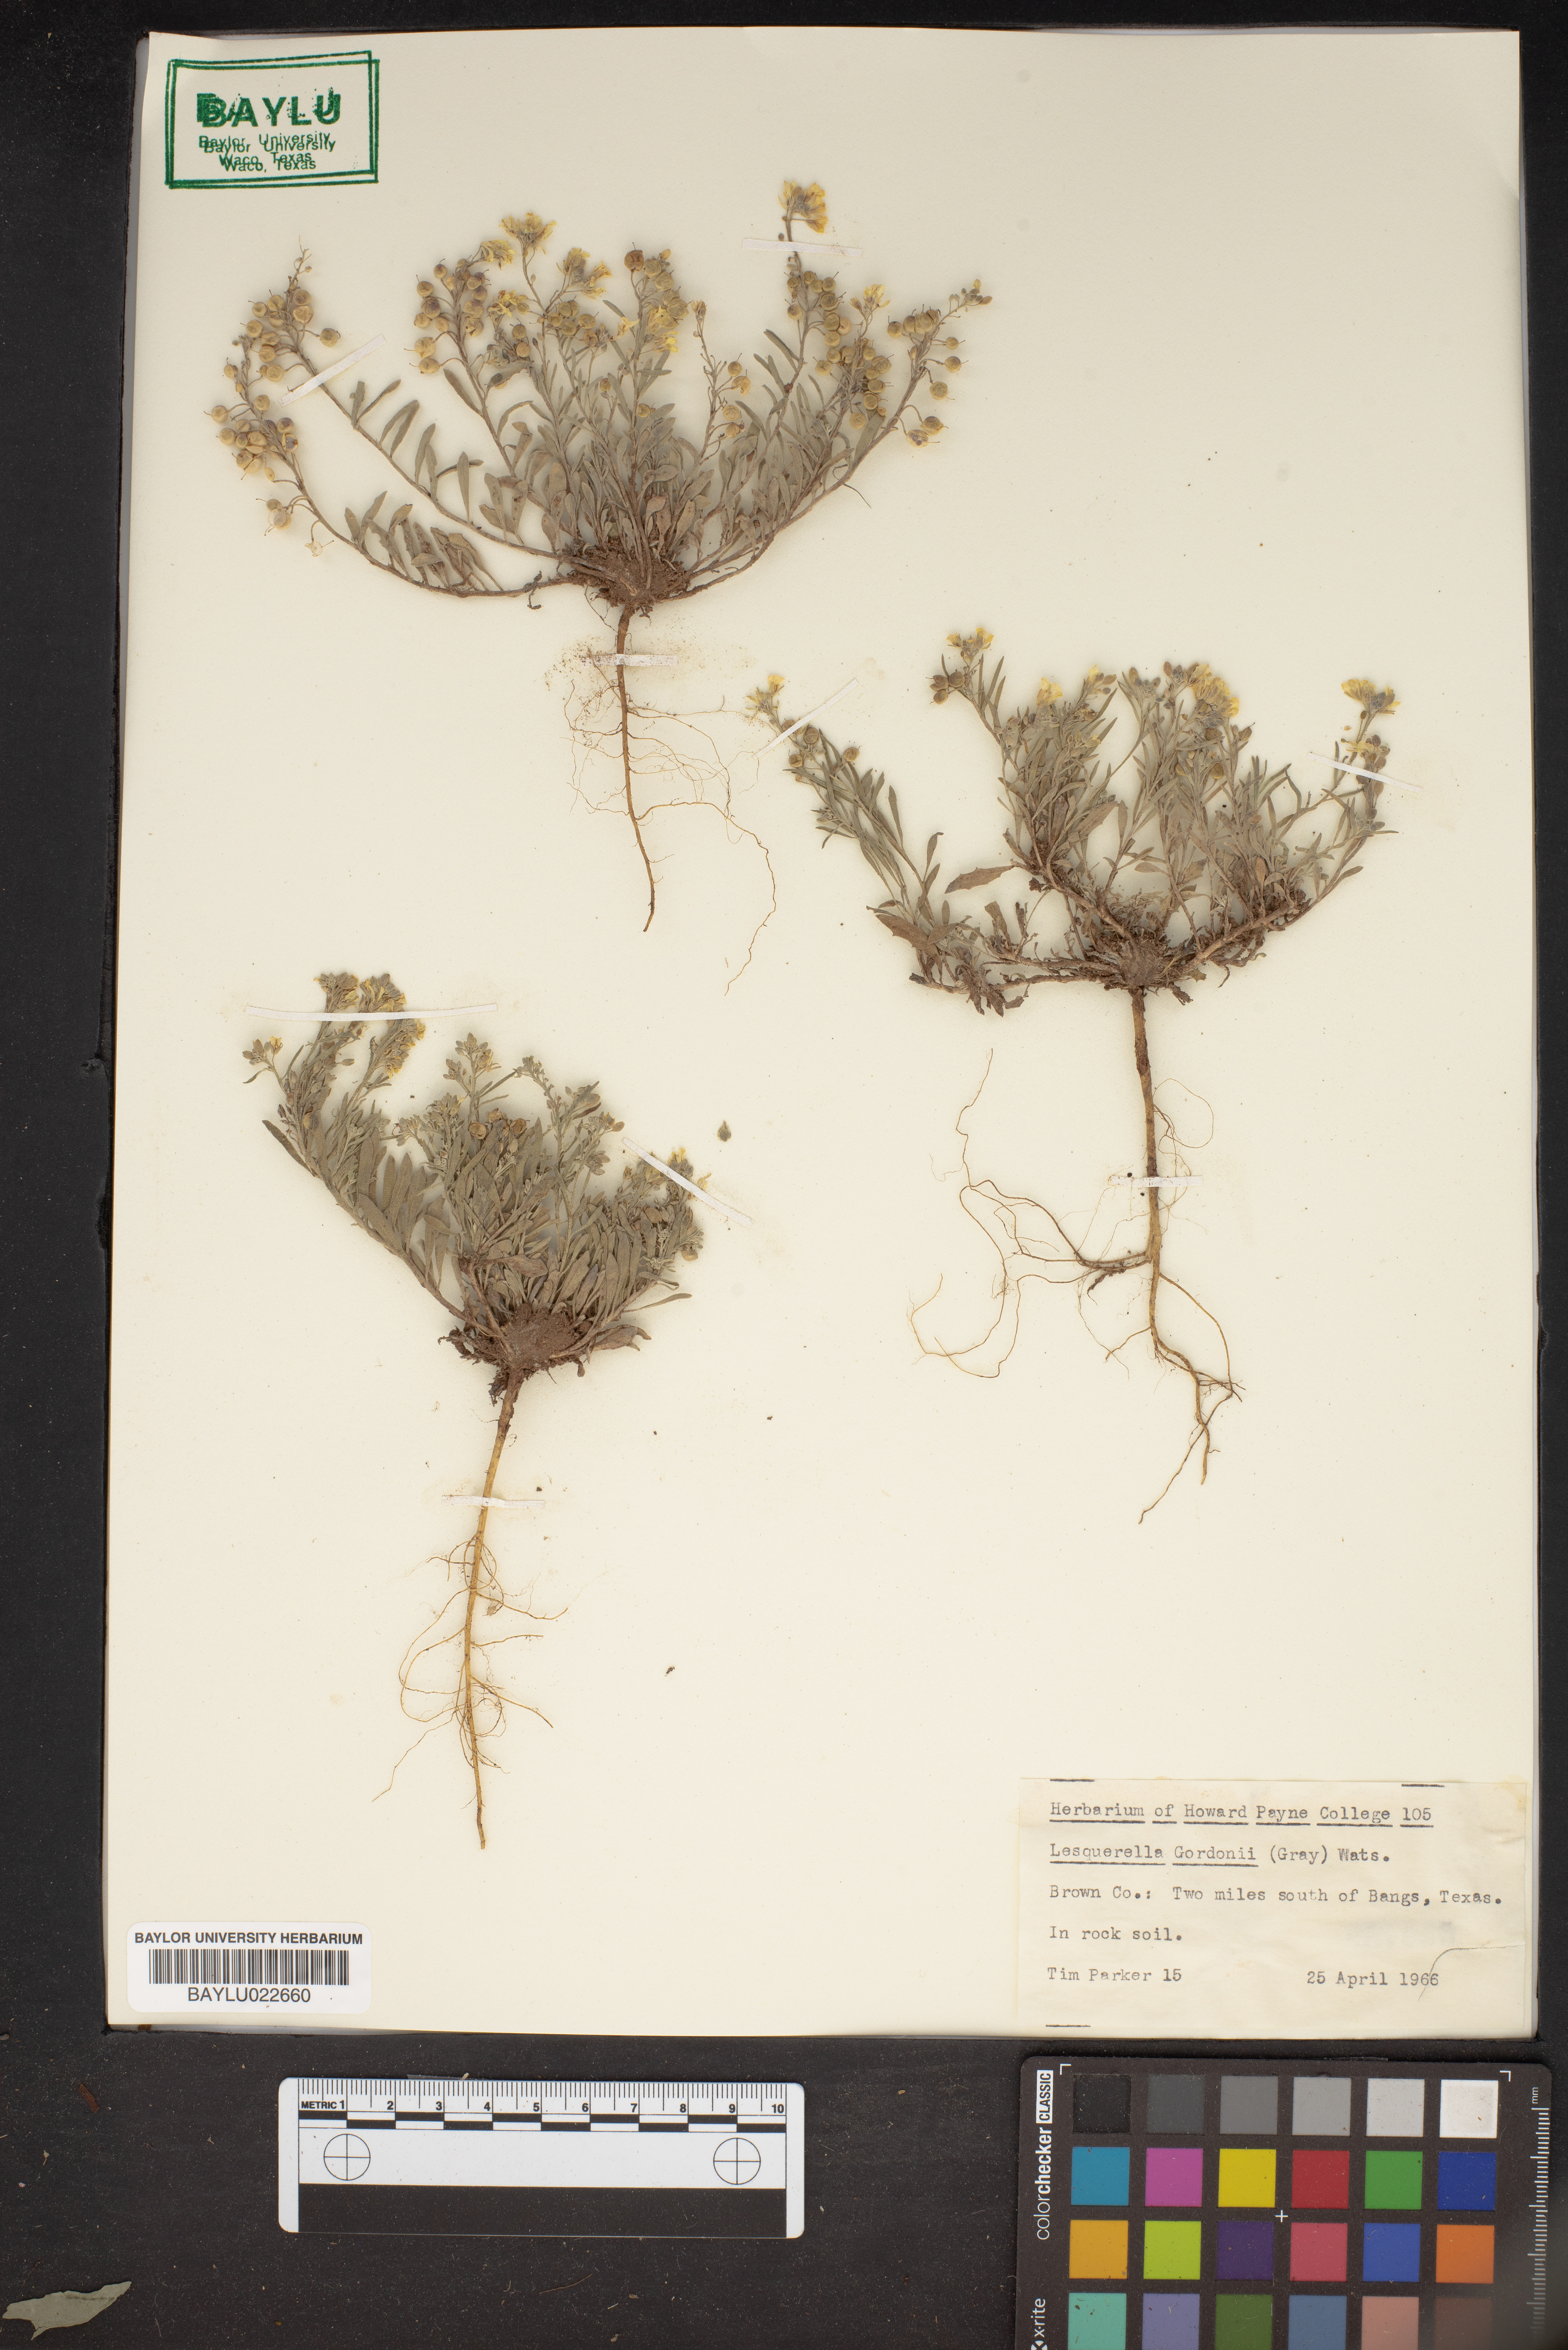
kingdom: Plantae
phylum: Tracheophyta
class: Magnoliopsida
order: Brassicales
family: Brassicaceae
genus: Physaria
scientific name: Physaria gordonii
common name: Gordon's bladderpod
